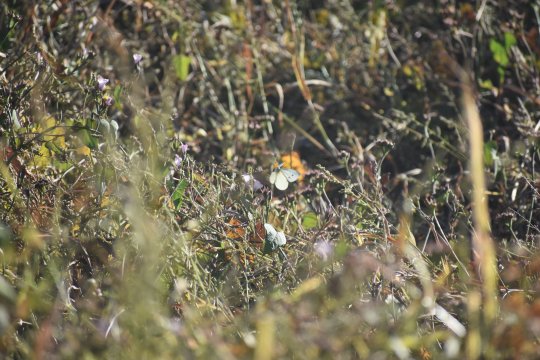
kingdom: Animalia
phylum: Arthropoda
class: Insecta
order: Lepidoptera
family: Pieridae
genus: Pieris
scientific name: Pieris rapae
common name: Cabbage White
